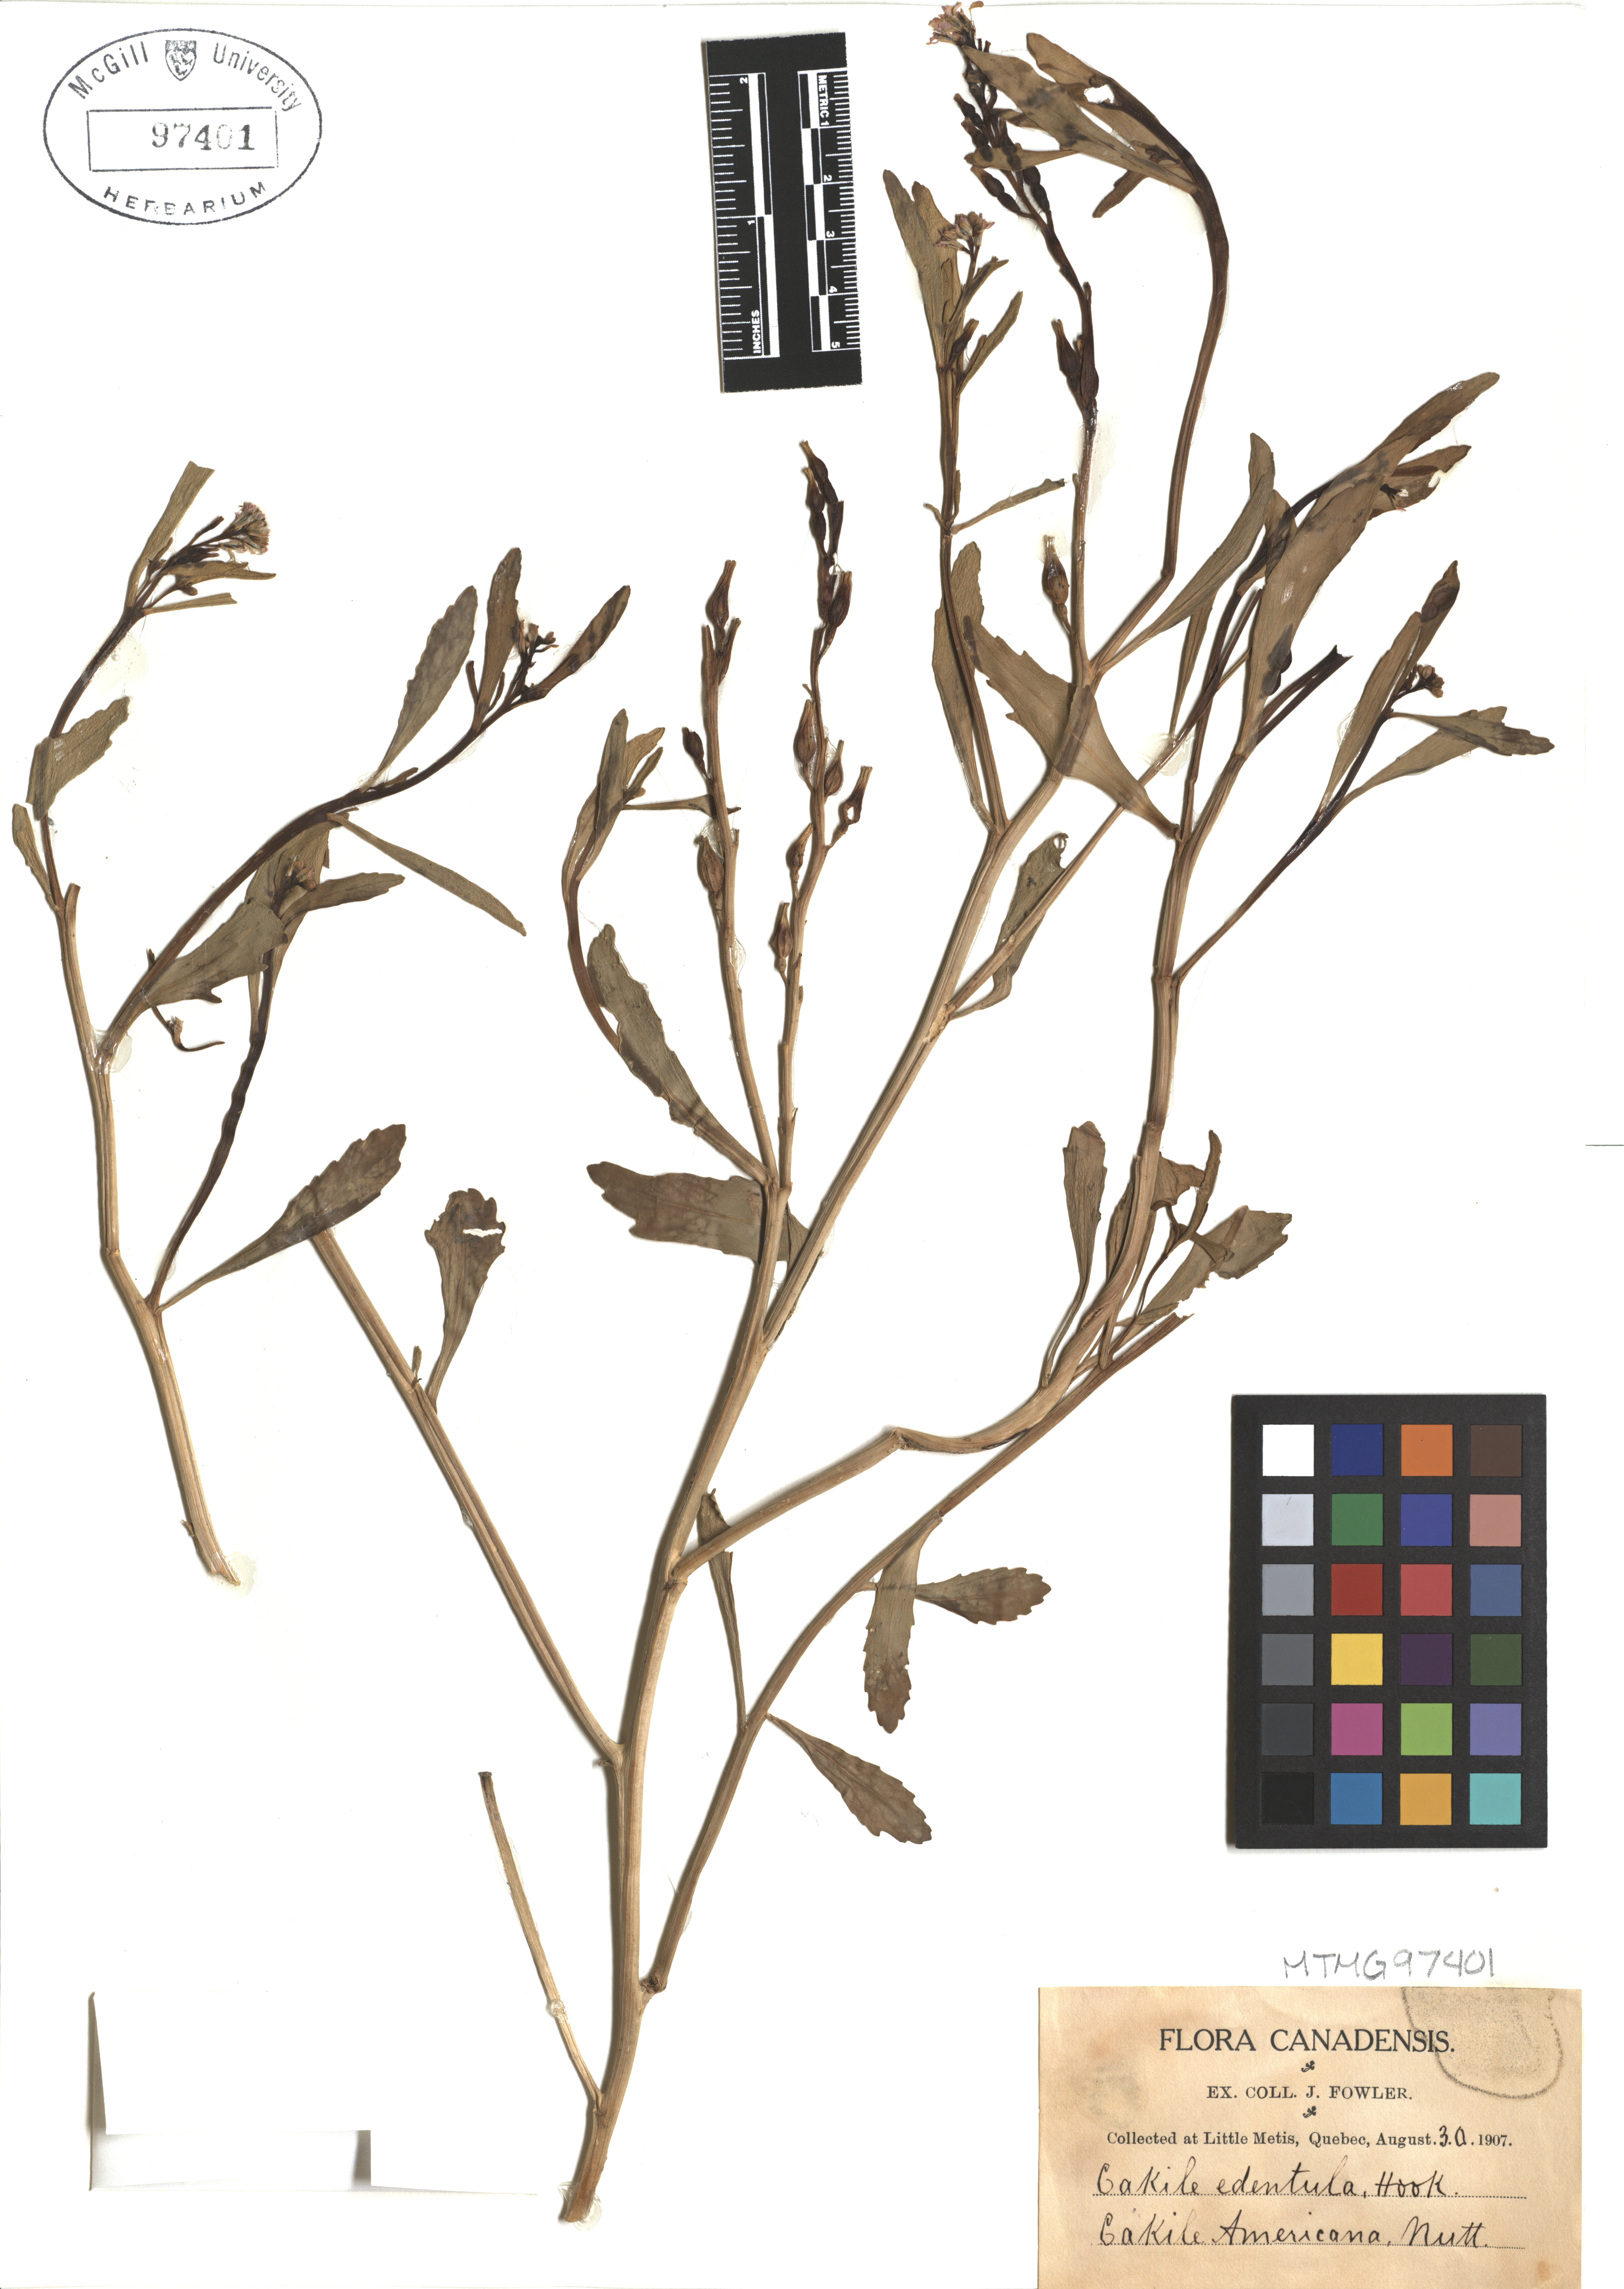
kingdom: Plantae
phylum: Tracheophyta
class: Magnoliopsida
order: Brassicales
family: Brassicaceae
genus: Cakile
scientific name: Cakile edentula
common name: American sea rocket
